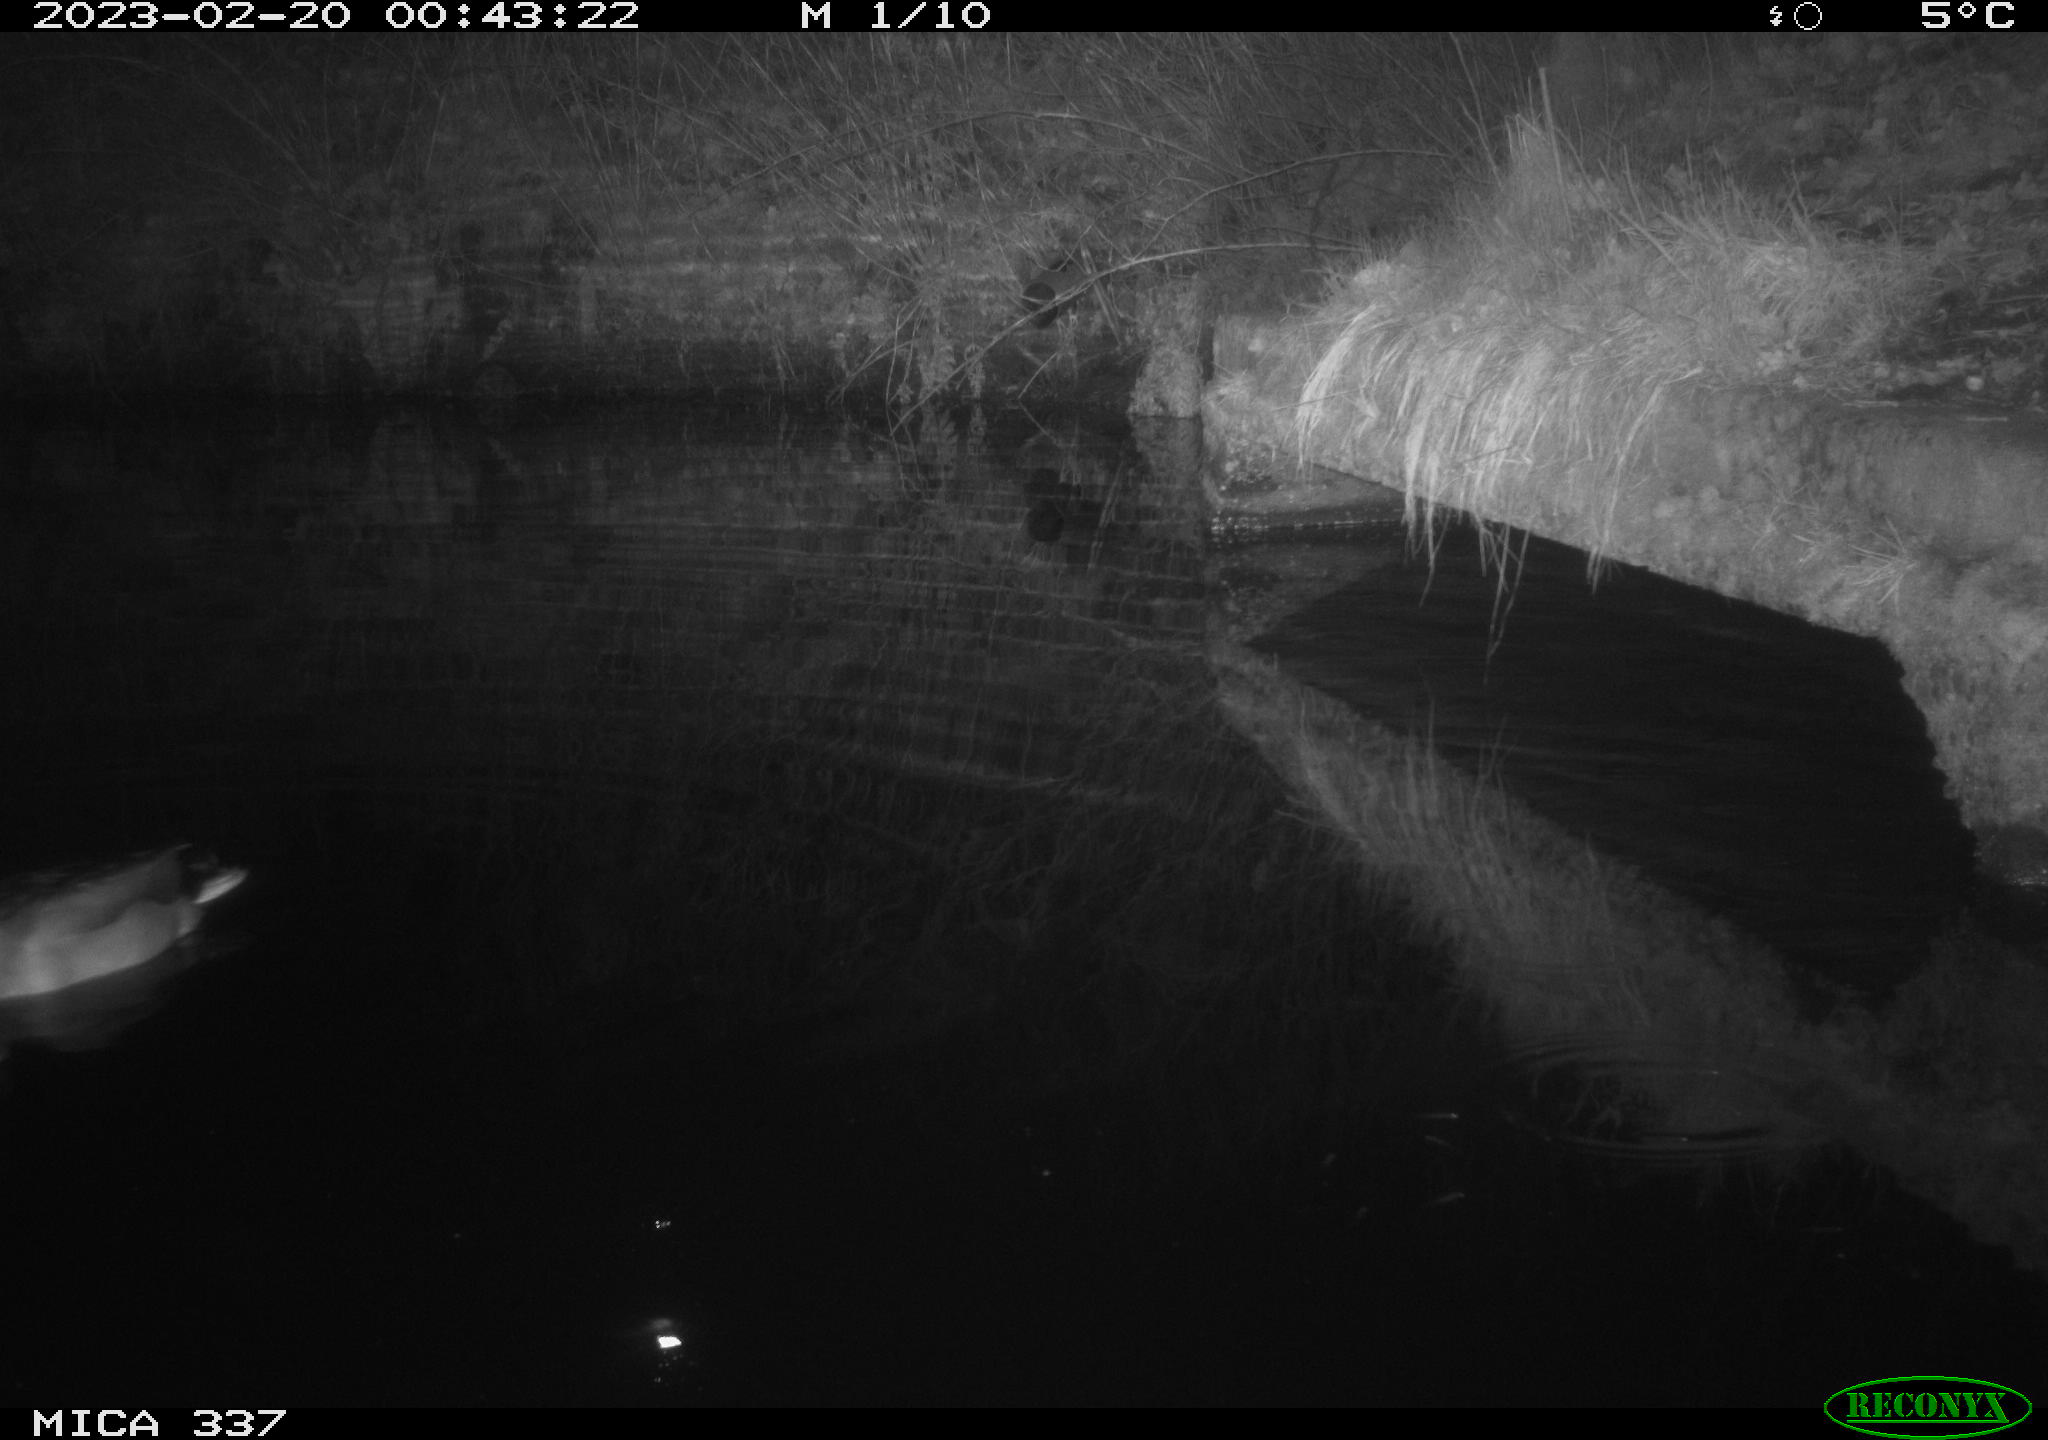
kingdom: Animalia
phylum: Chordata
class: Aves
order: Anseriformes
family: Anatidae
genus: Anas
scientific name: Anas
